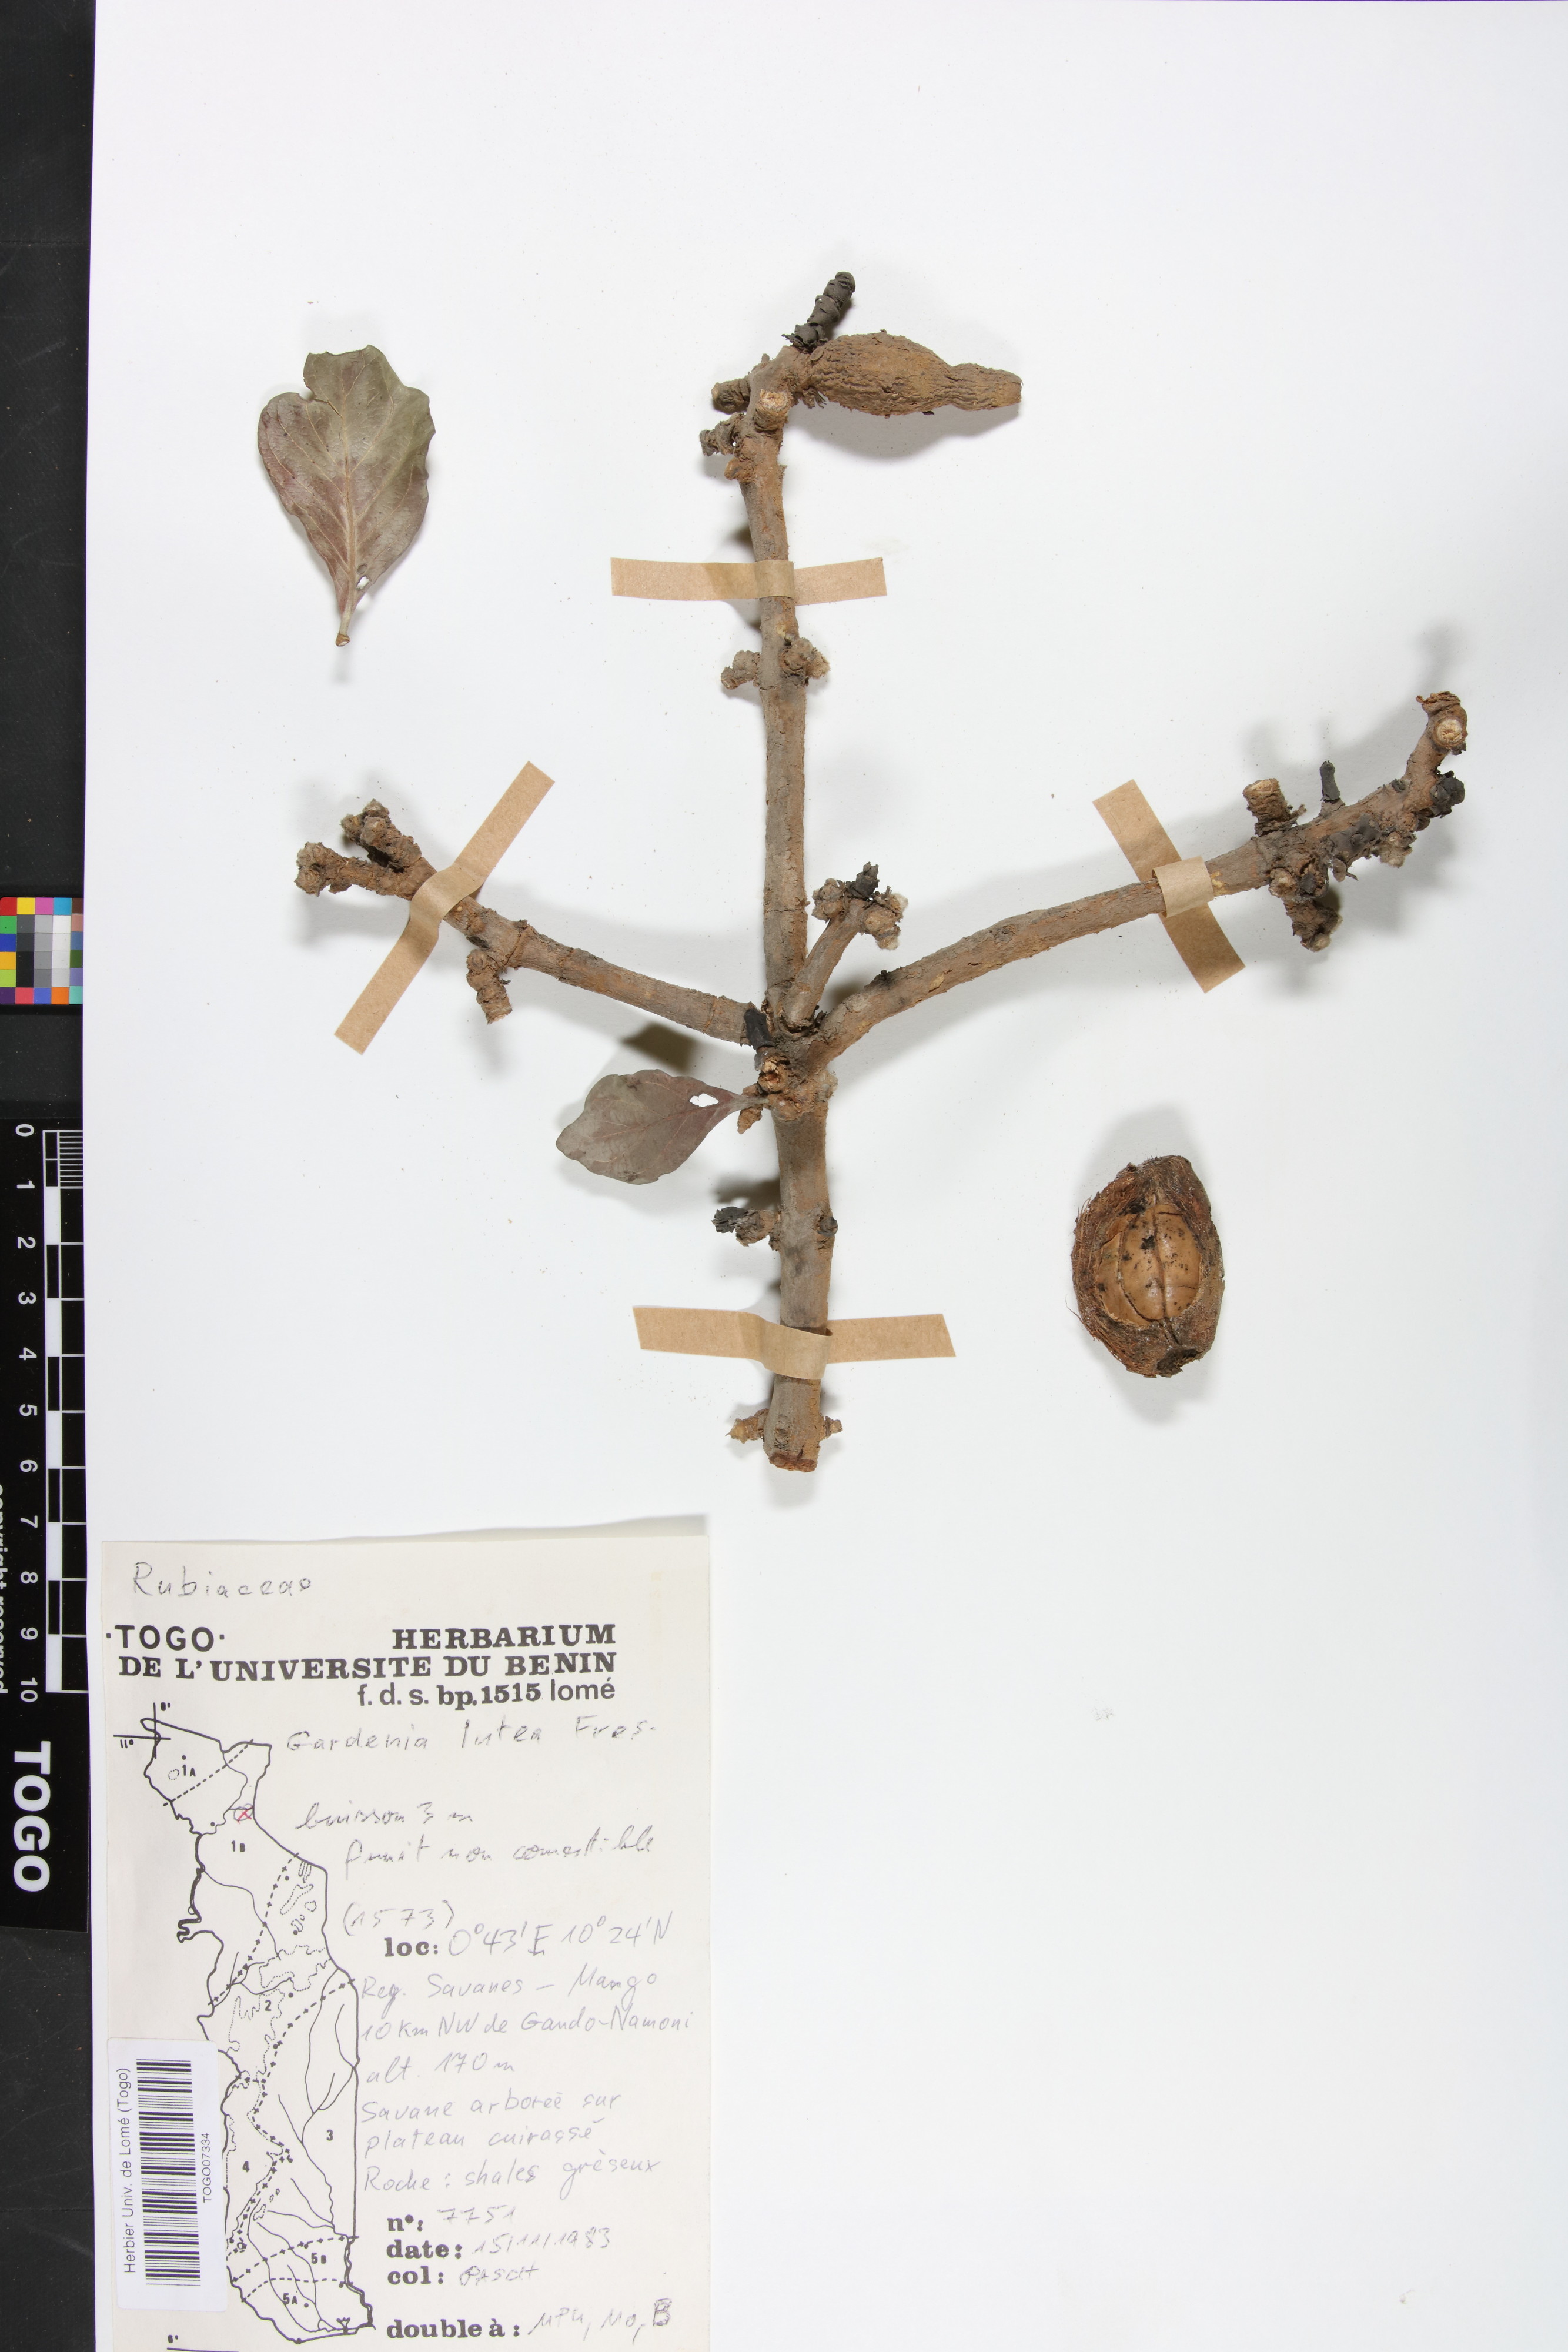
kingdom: Plantae
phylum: Tracheophyta
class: Magnoliopsida
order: Gentianales
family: Rubiaceae
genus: Gardenia
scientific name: Gardenia ternifolia
